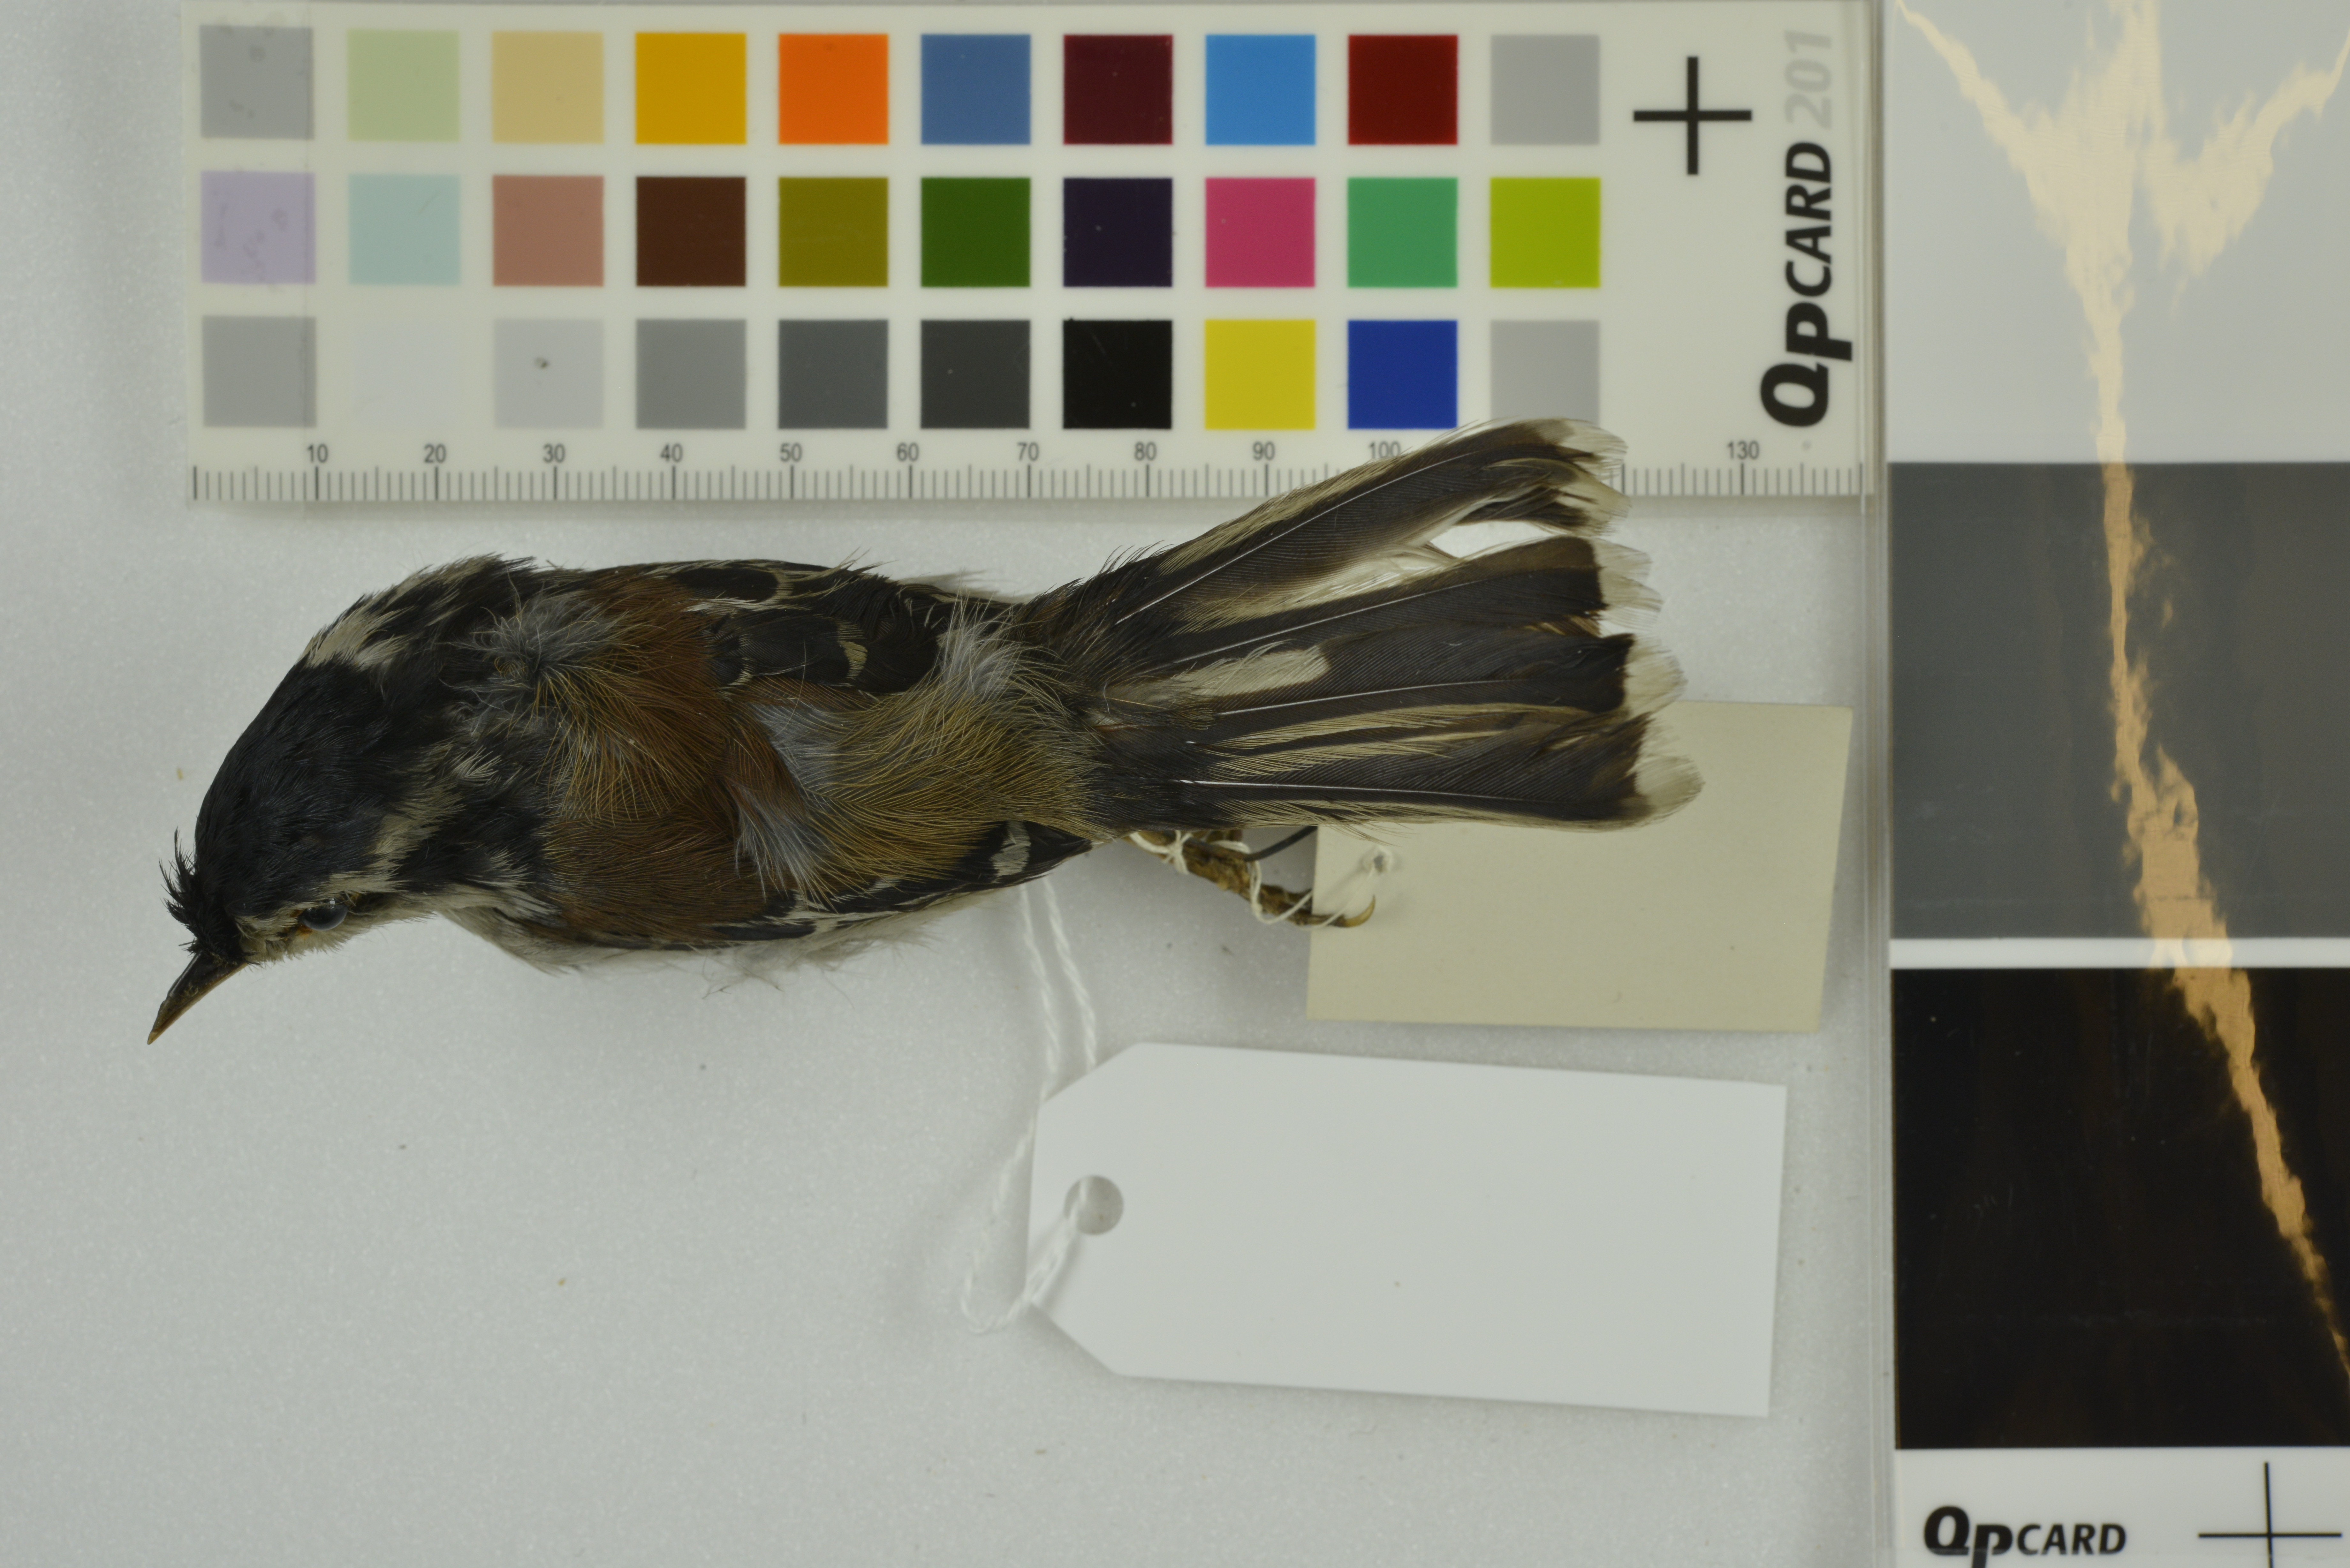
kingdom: Animalia
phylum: Chordata
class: Aves
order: Passeriformes
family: Leiothrichidae
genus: Minla
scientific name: Minla ignotincta
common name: Red-tailed minla
